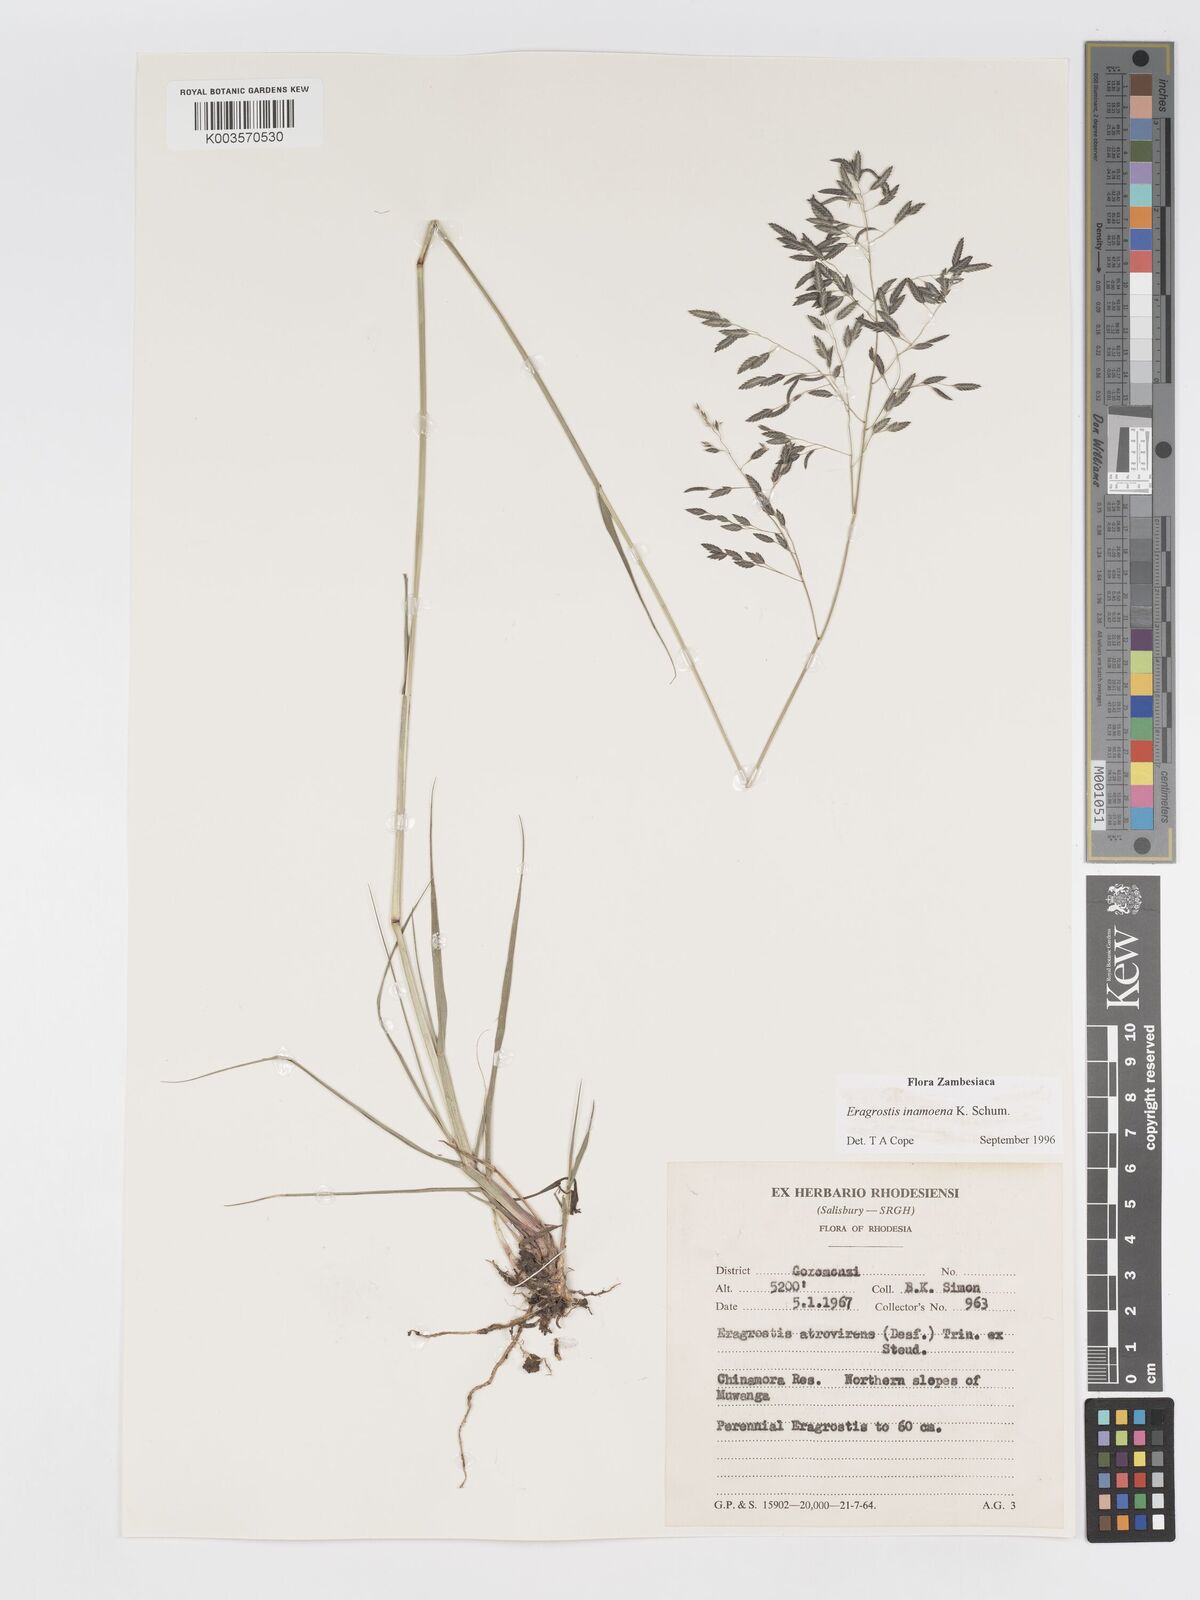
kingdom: Plantae
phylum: Tracheophyta
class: Liliopsida
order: Poales
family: Poaceae
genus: Eragrostis
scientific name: Eragrostis inamoena
